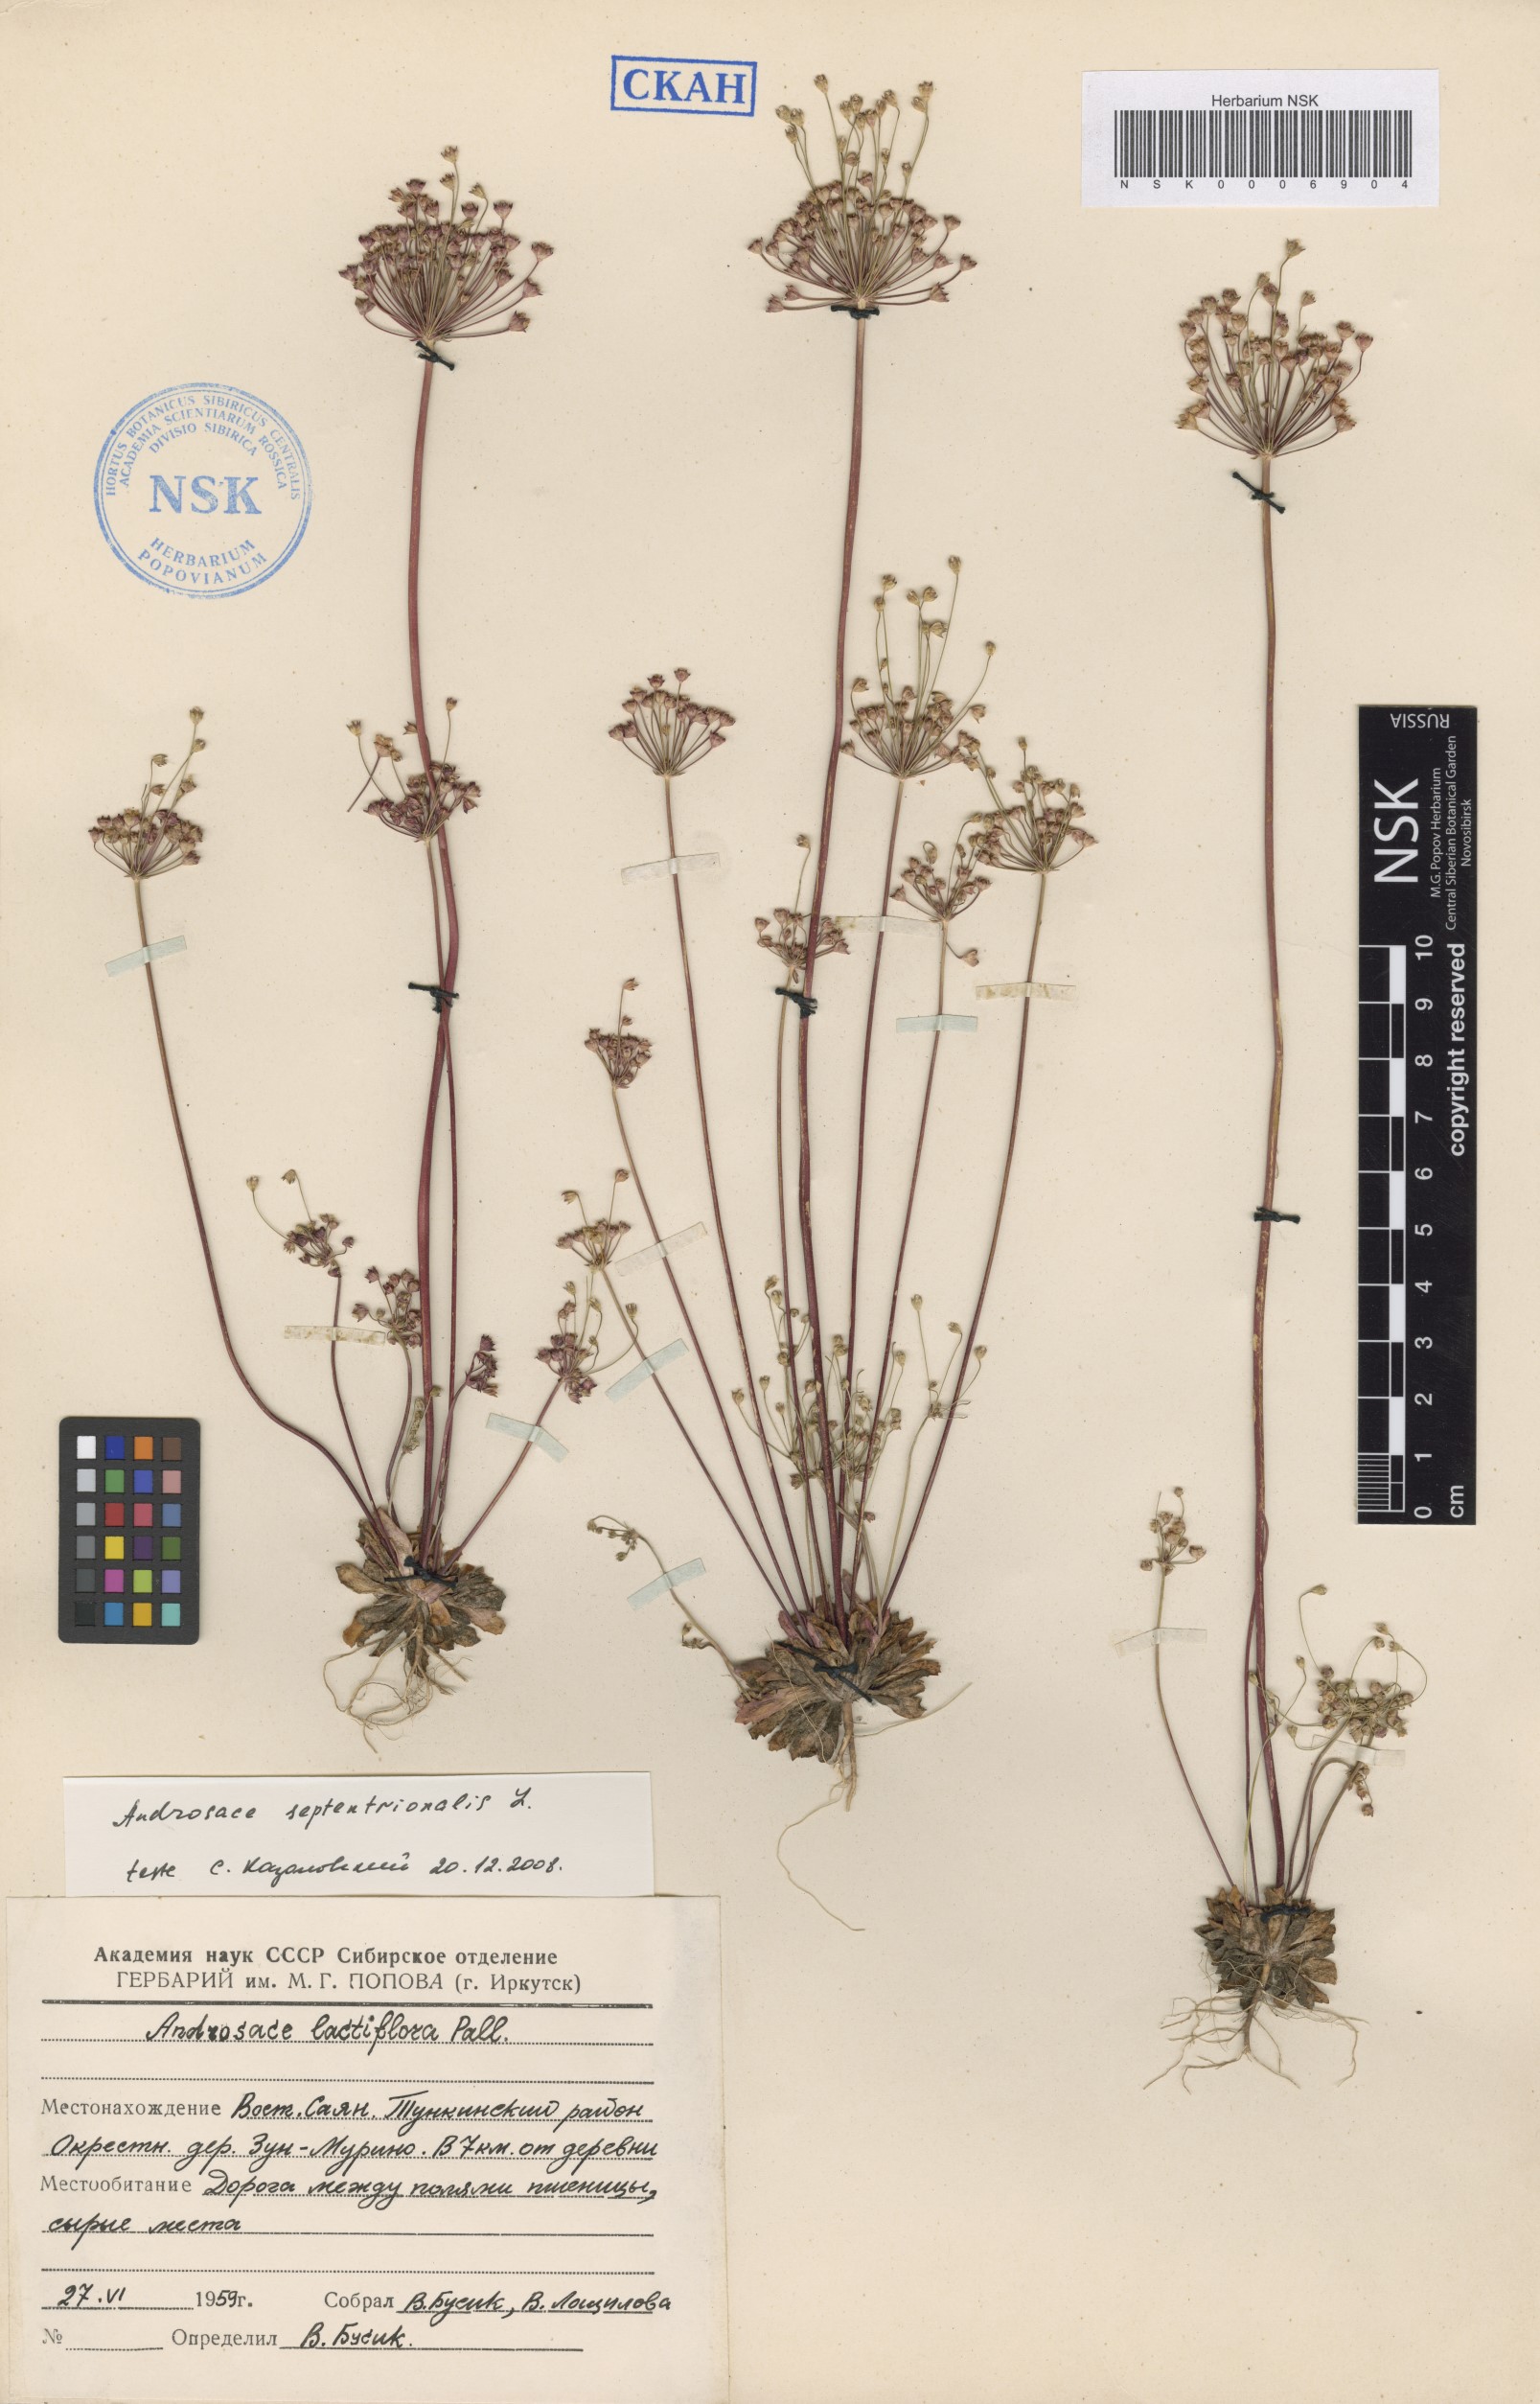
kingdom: Plantae
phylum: Tracheophyta
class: Magnoliopsida
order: Ericales
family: Primulaceae
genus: Androsace
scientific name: Androsace septentrionalis
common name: Hairy northern fairy-candelabra
